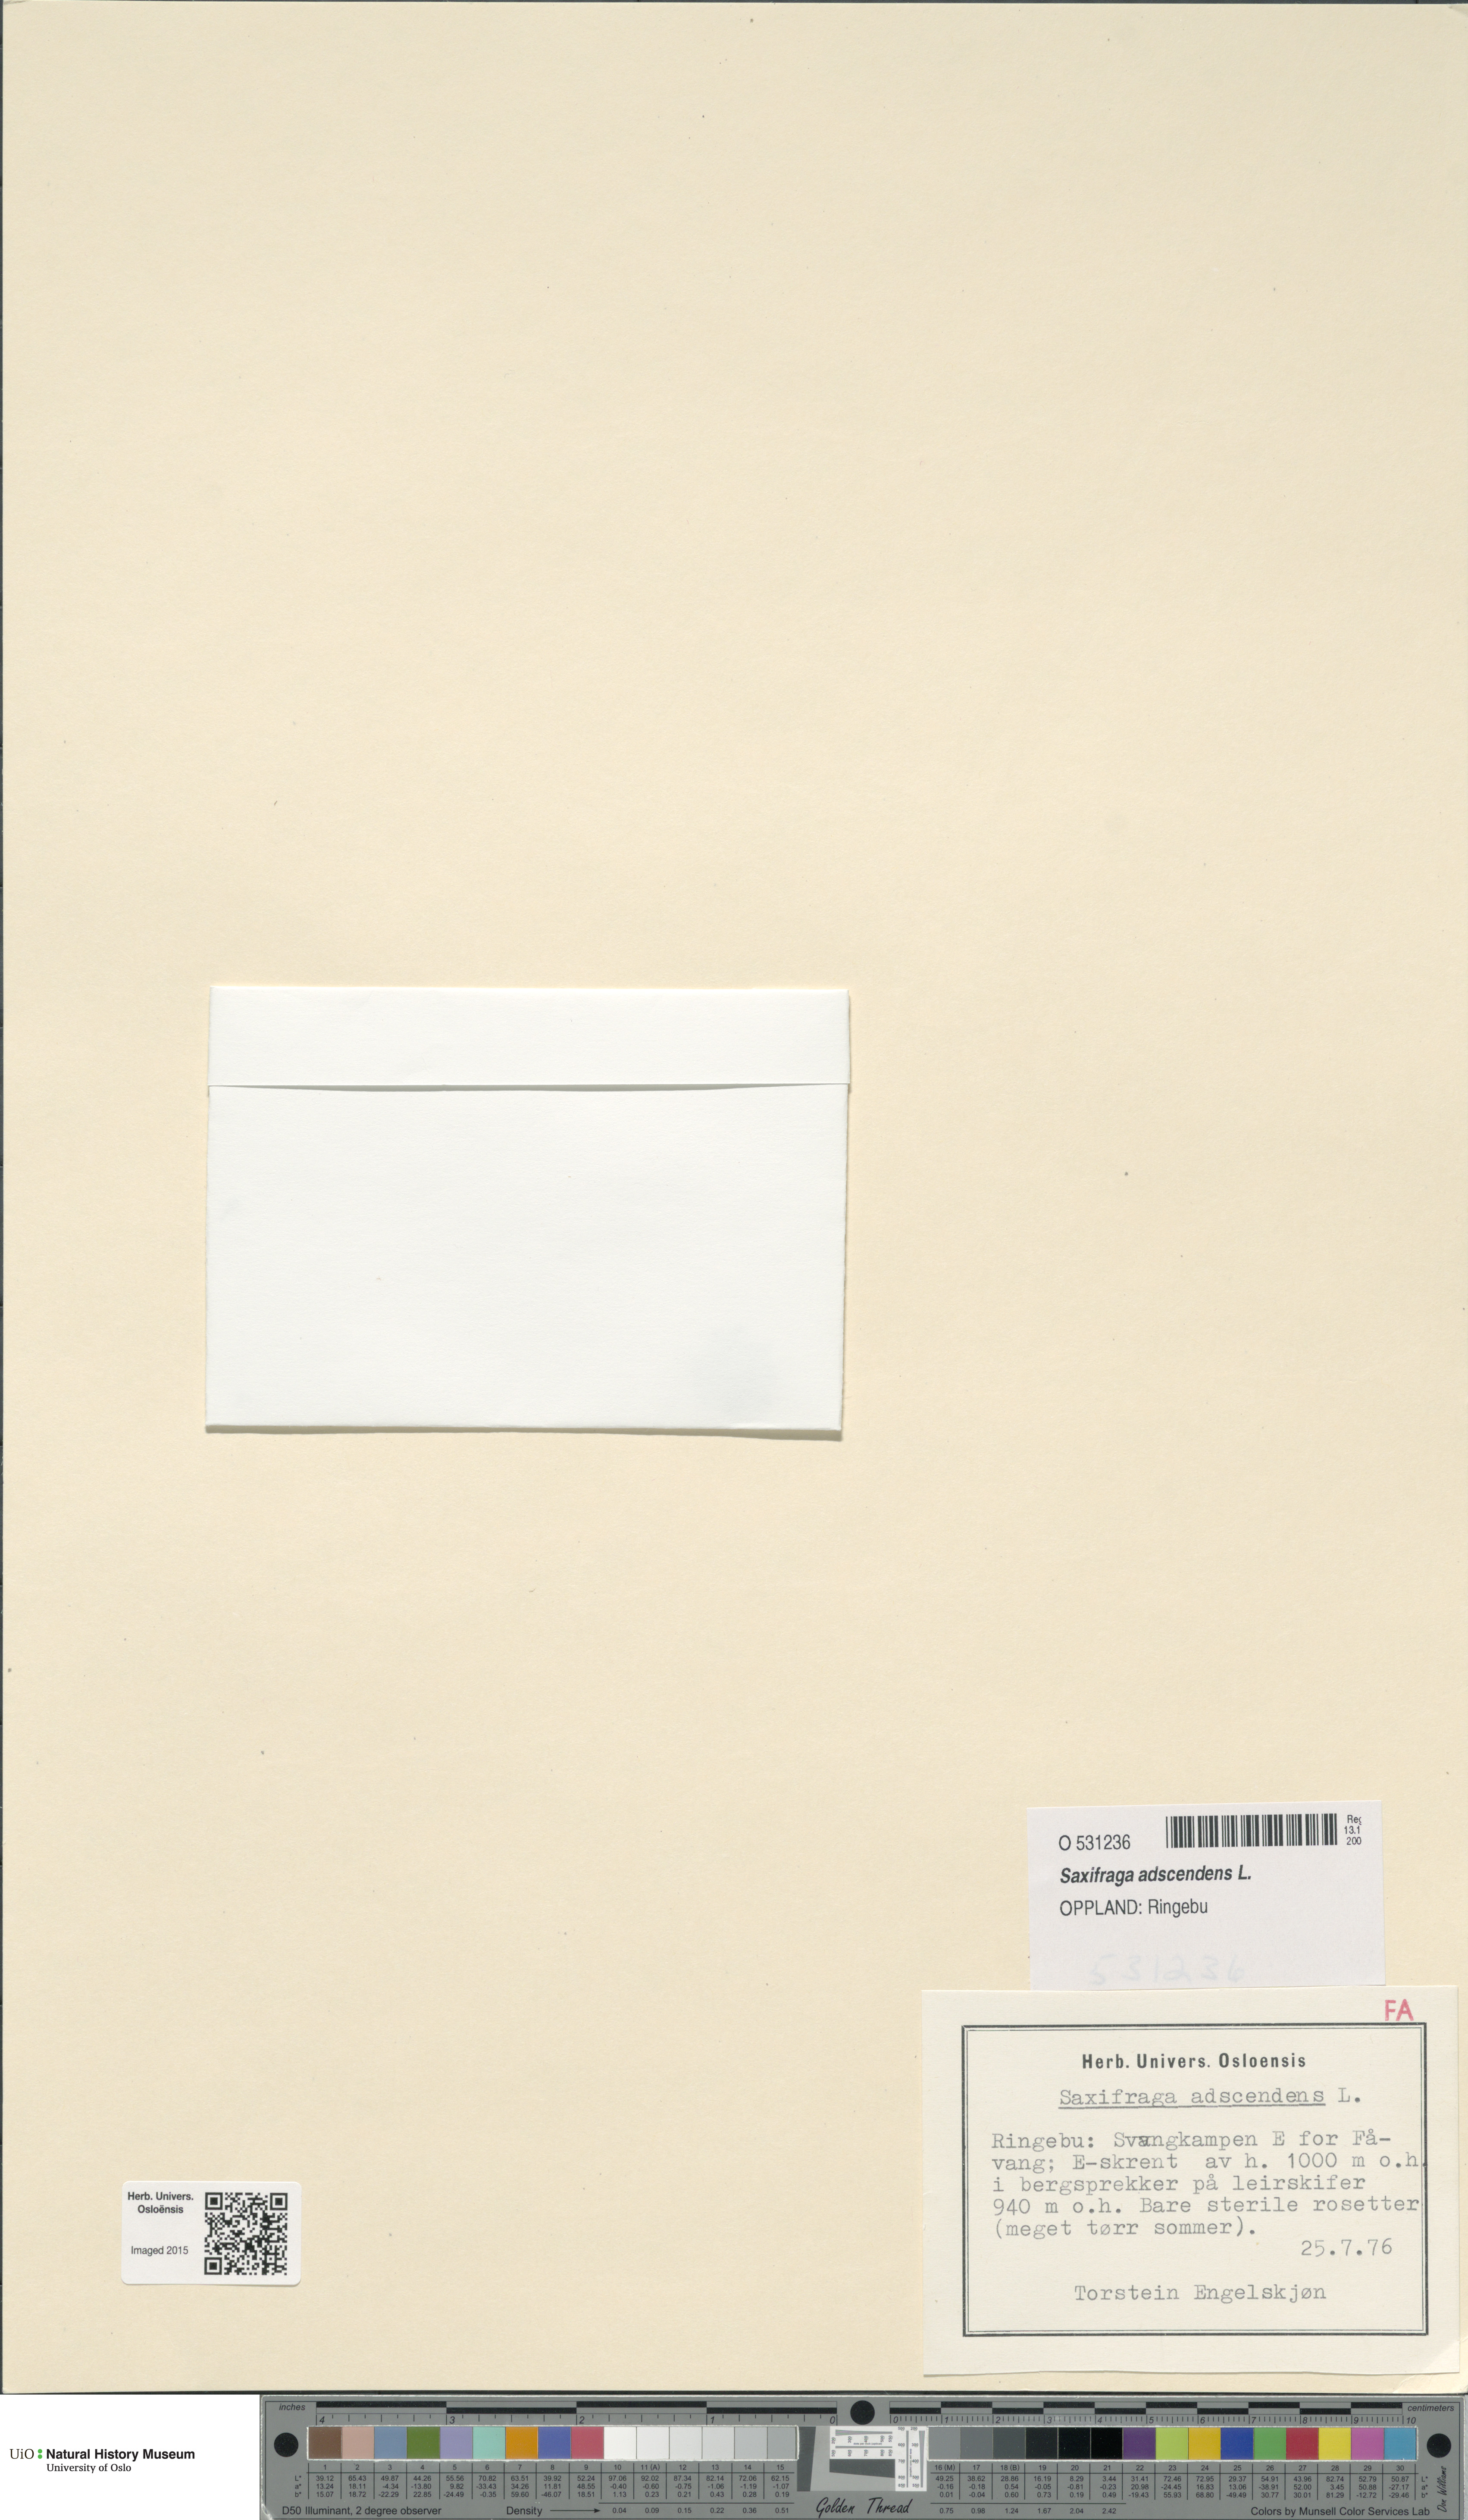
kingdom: Plantae
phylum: Tracheophyta
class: Magnoliopsida
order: Saxifragales
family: Saxifragaceae
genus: Saxifraga
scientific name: Saxifraga adscendens
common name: Ascending saxifrage
